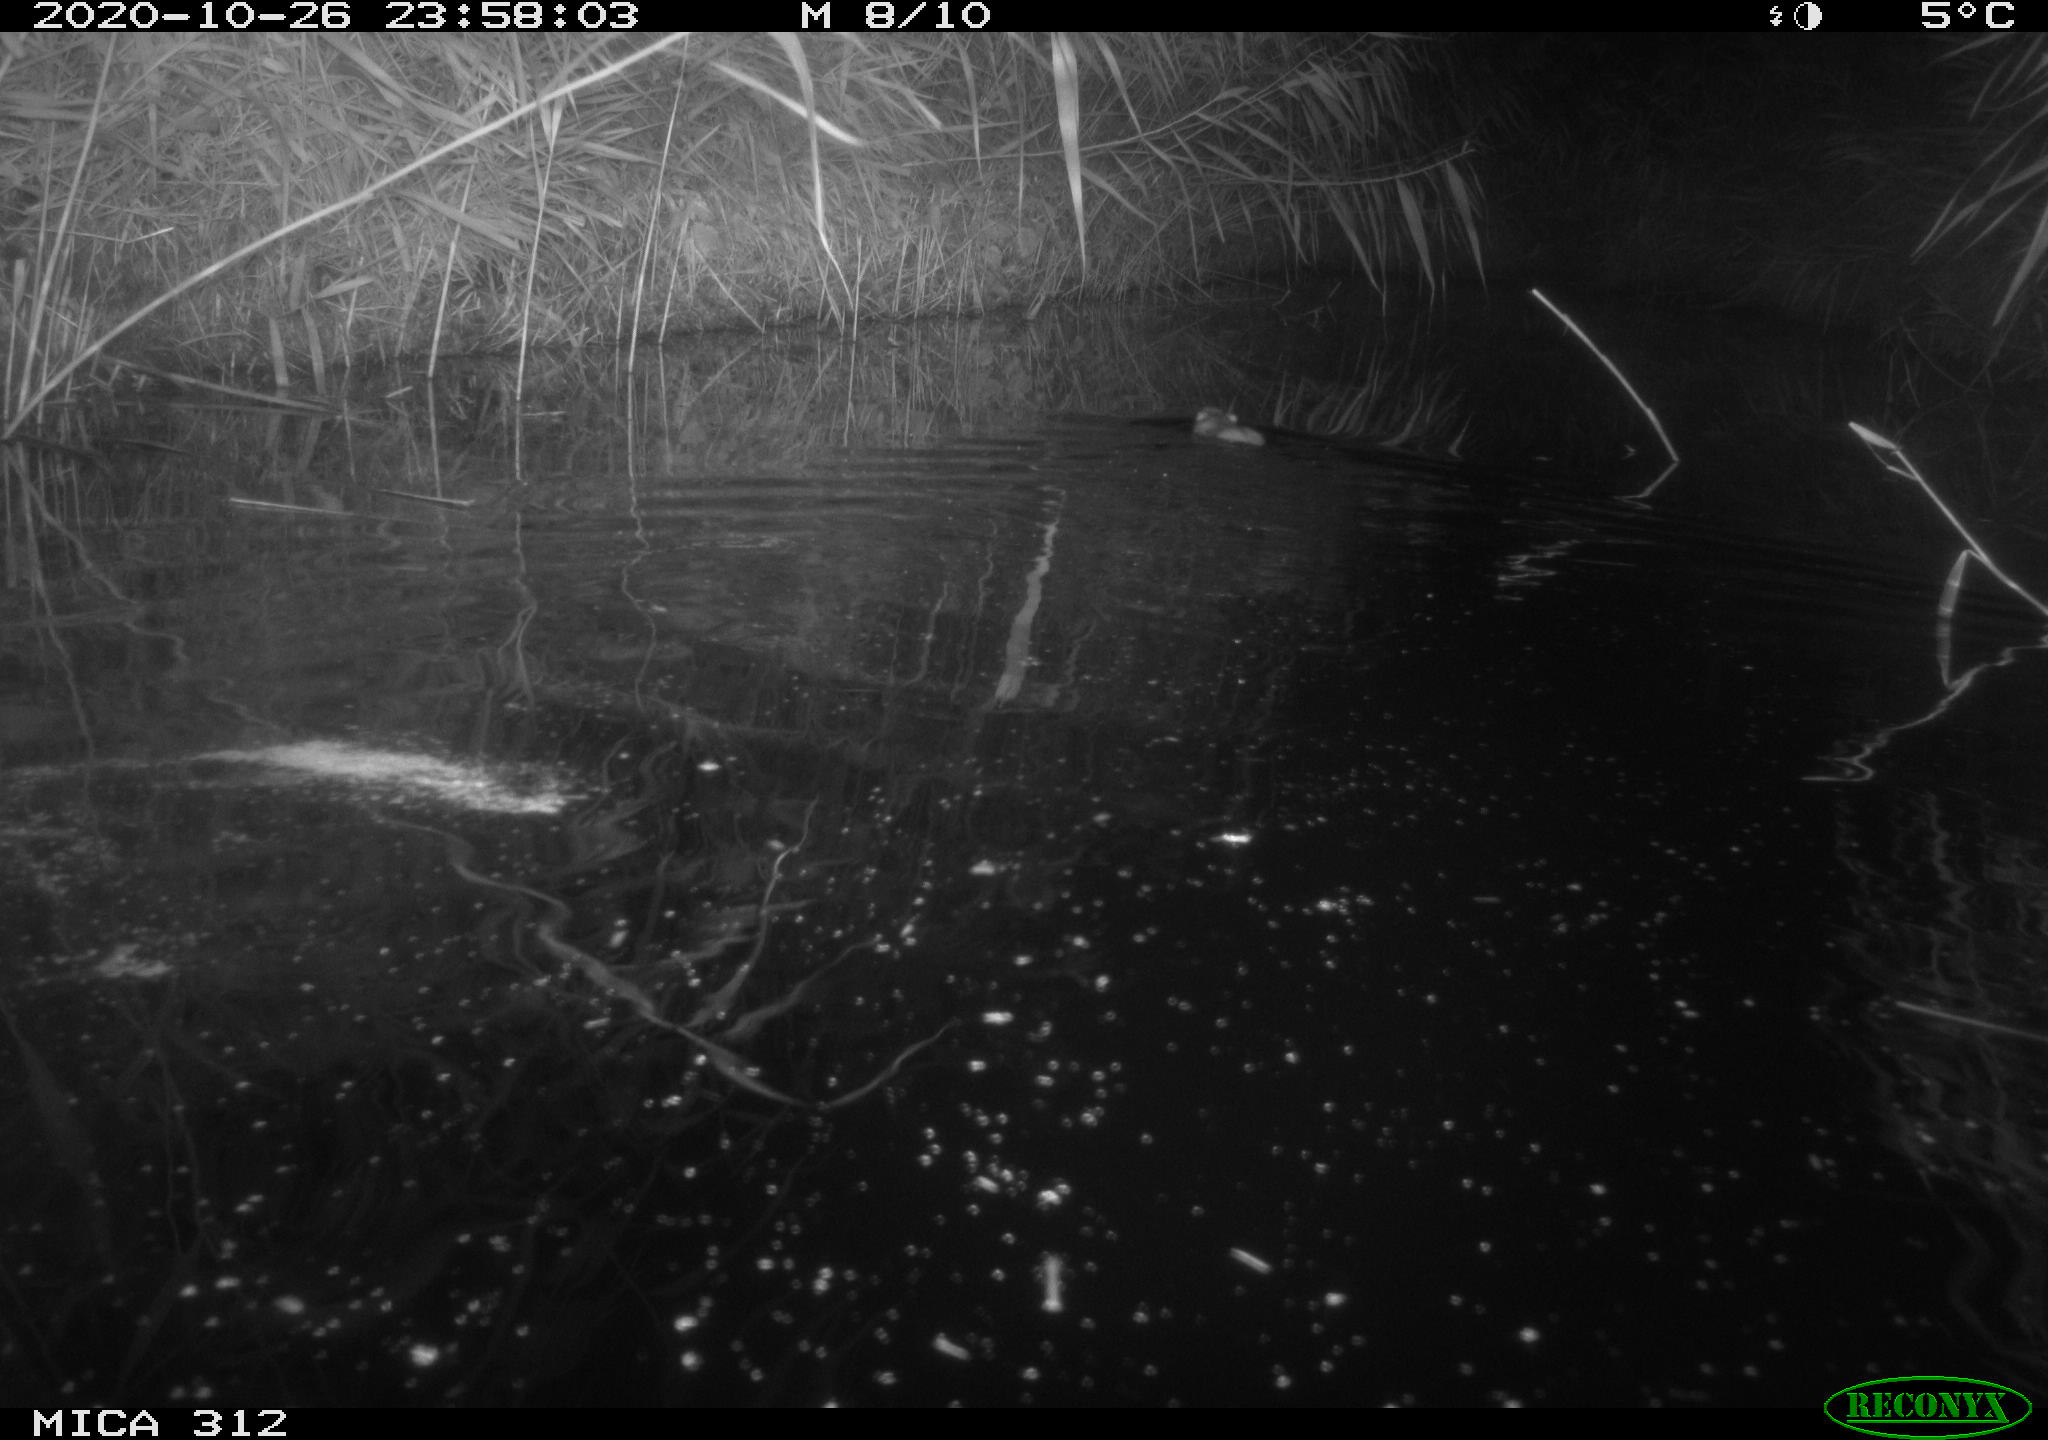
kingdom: Animalia
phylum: Chordata
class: Mammalia
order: Rodentia
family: Muridae
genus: Rattus
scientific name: Rattus norvegicus
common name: Brown rat
